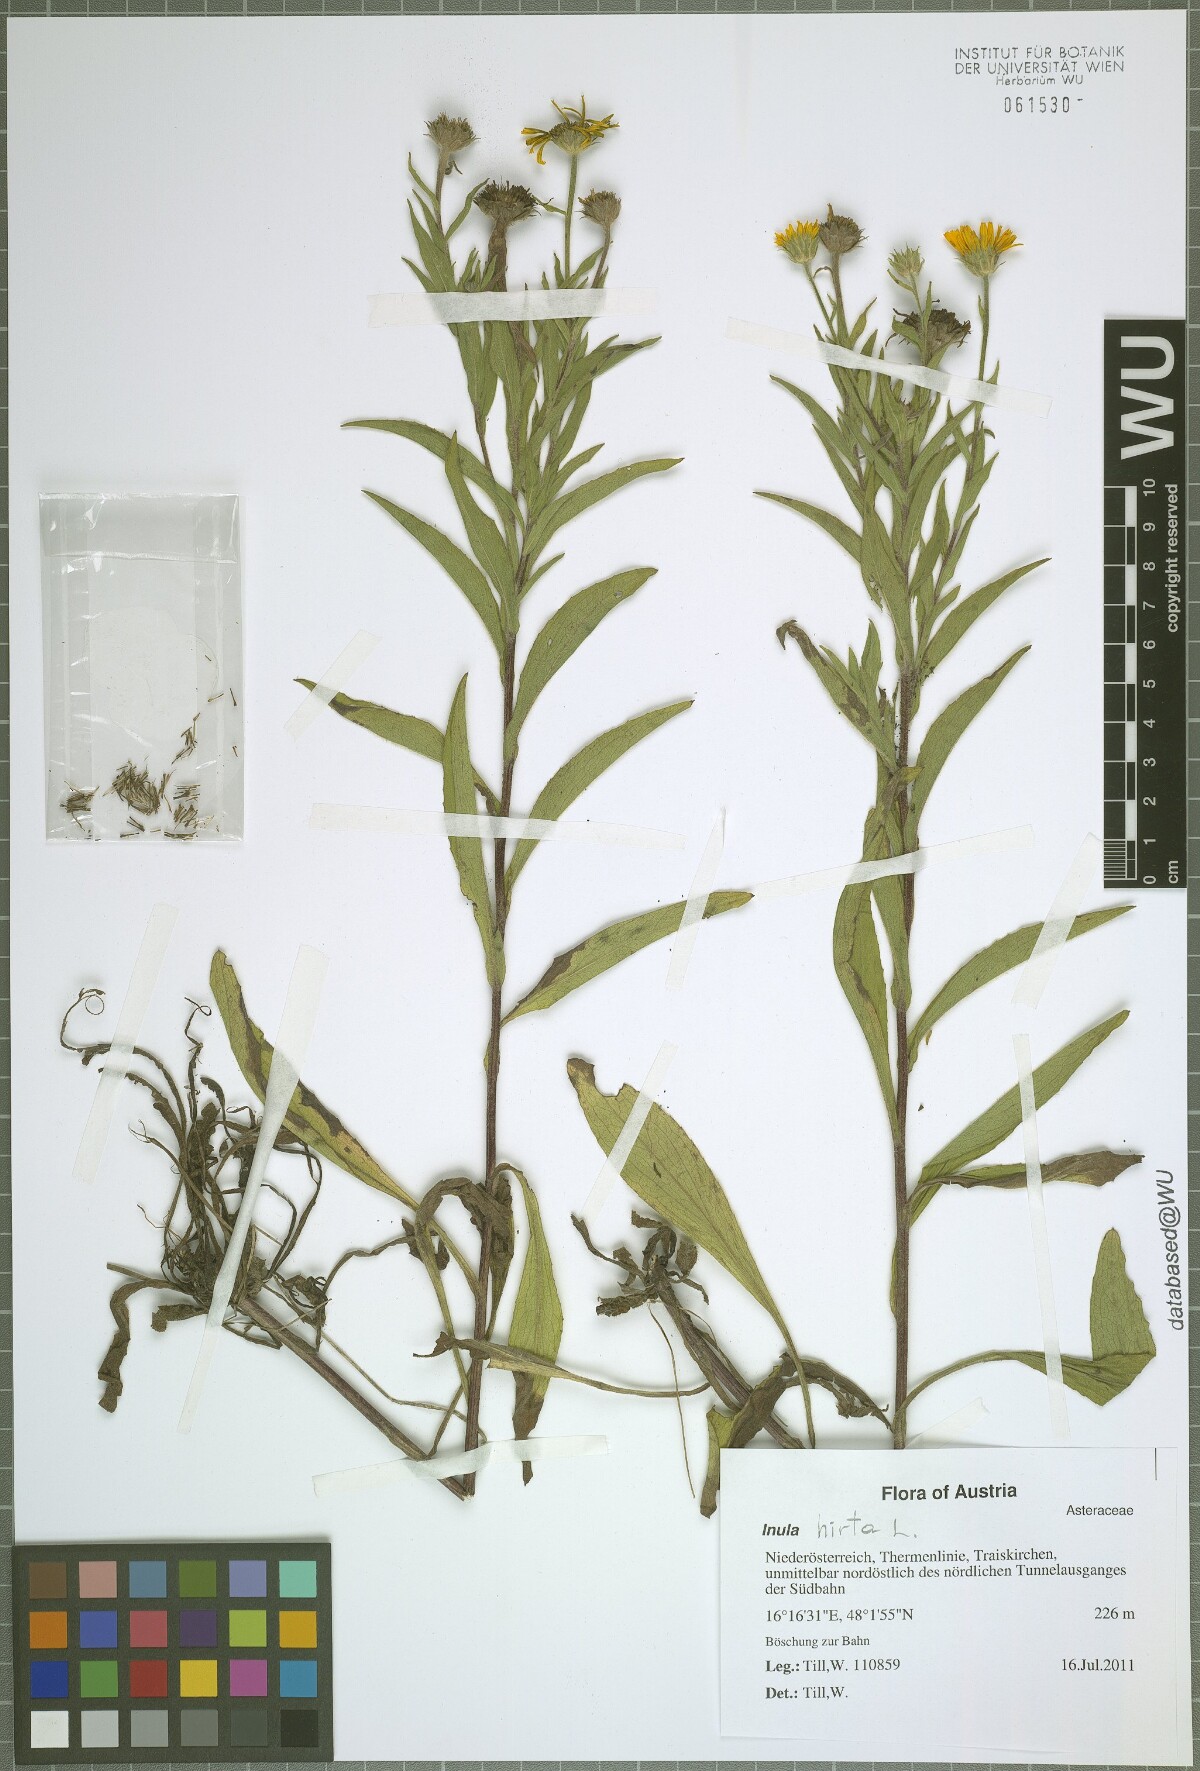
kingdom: Plantae
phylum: Tracheophyta
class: Magnoliopsida
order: Asterales
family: Asteraceae
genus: Buphthalmum
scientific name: Buphthalmum salicifolium
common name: Willow-leaved yellow-oxeye
